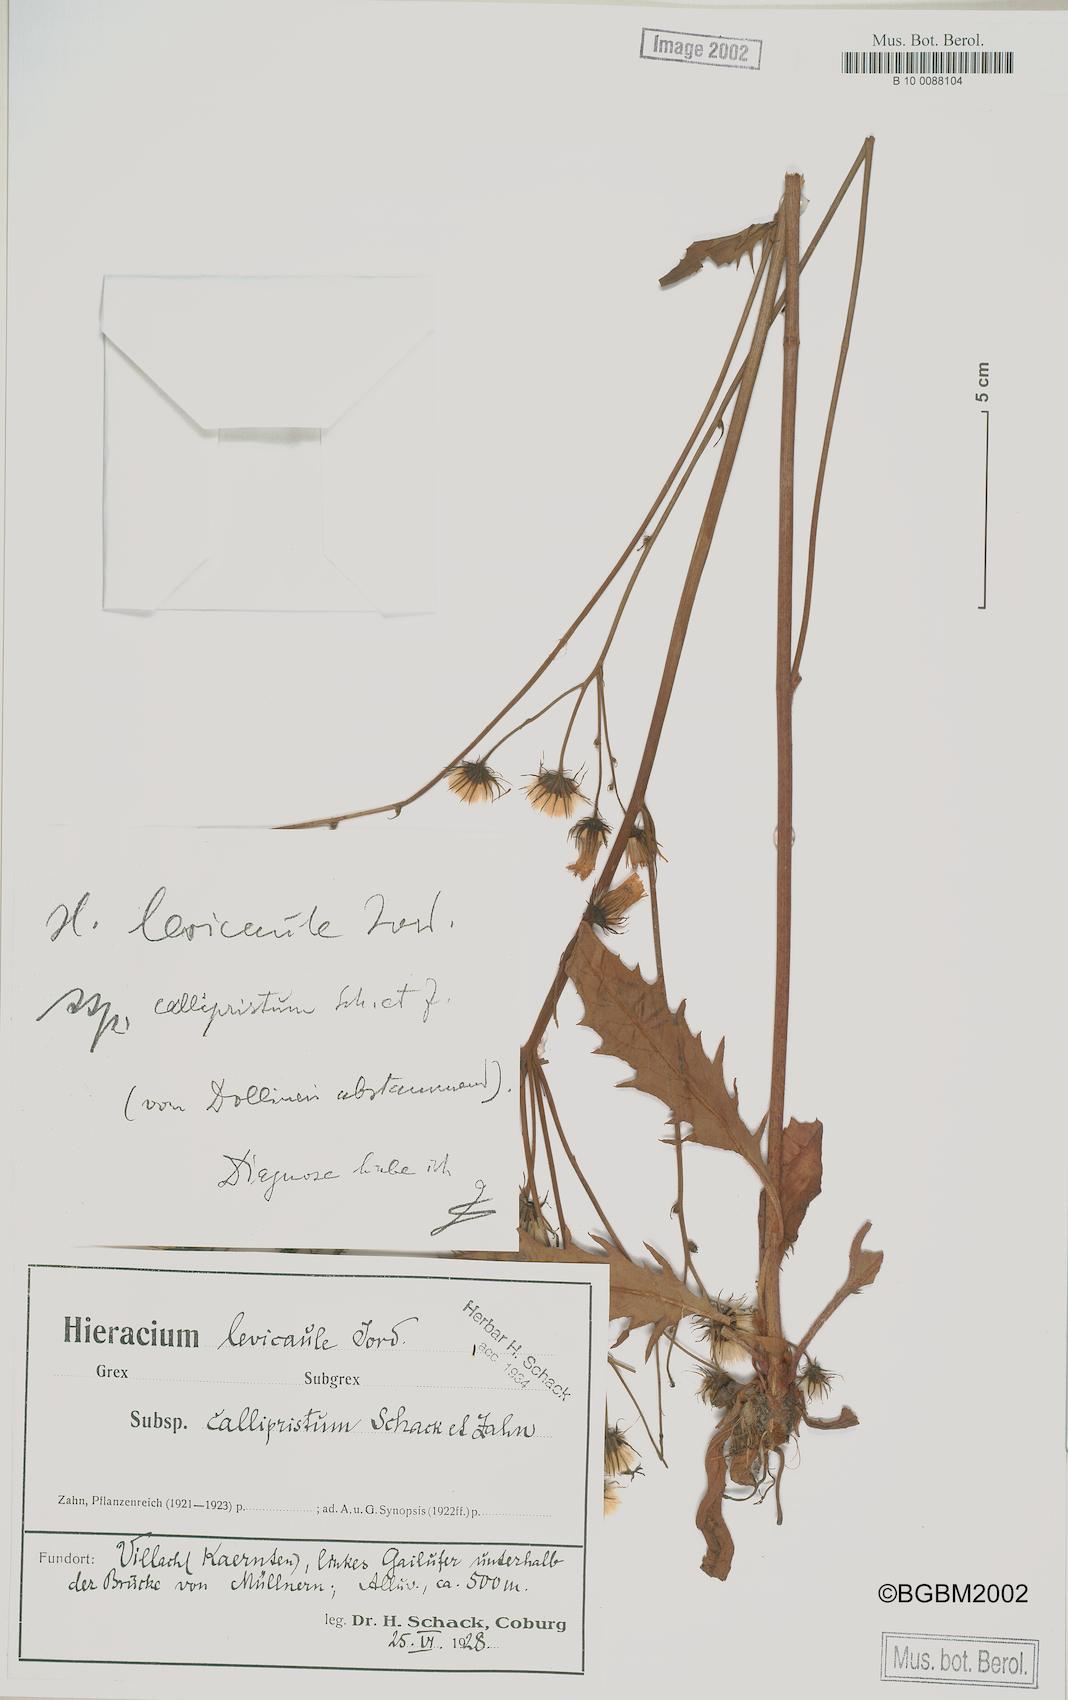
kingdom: Plantae
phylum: Tracheophyta
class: Magnoliopsida
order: Asterales
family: Asteraceae
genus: Hieracium
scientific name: Hieracium
